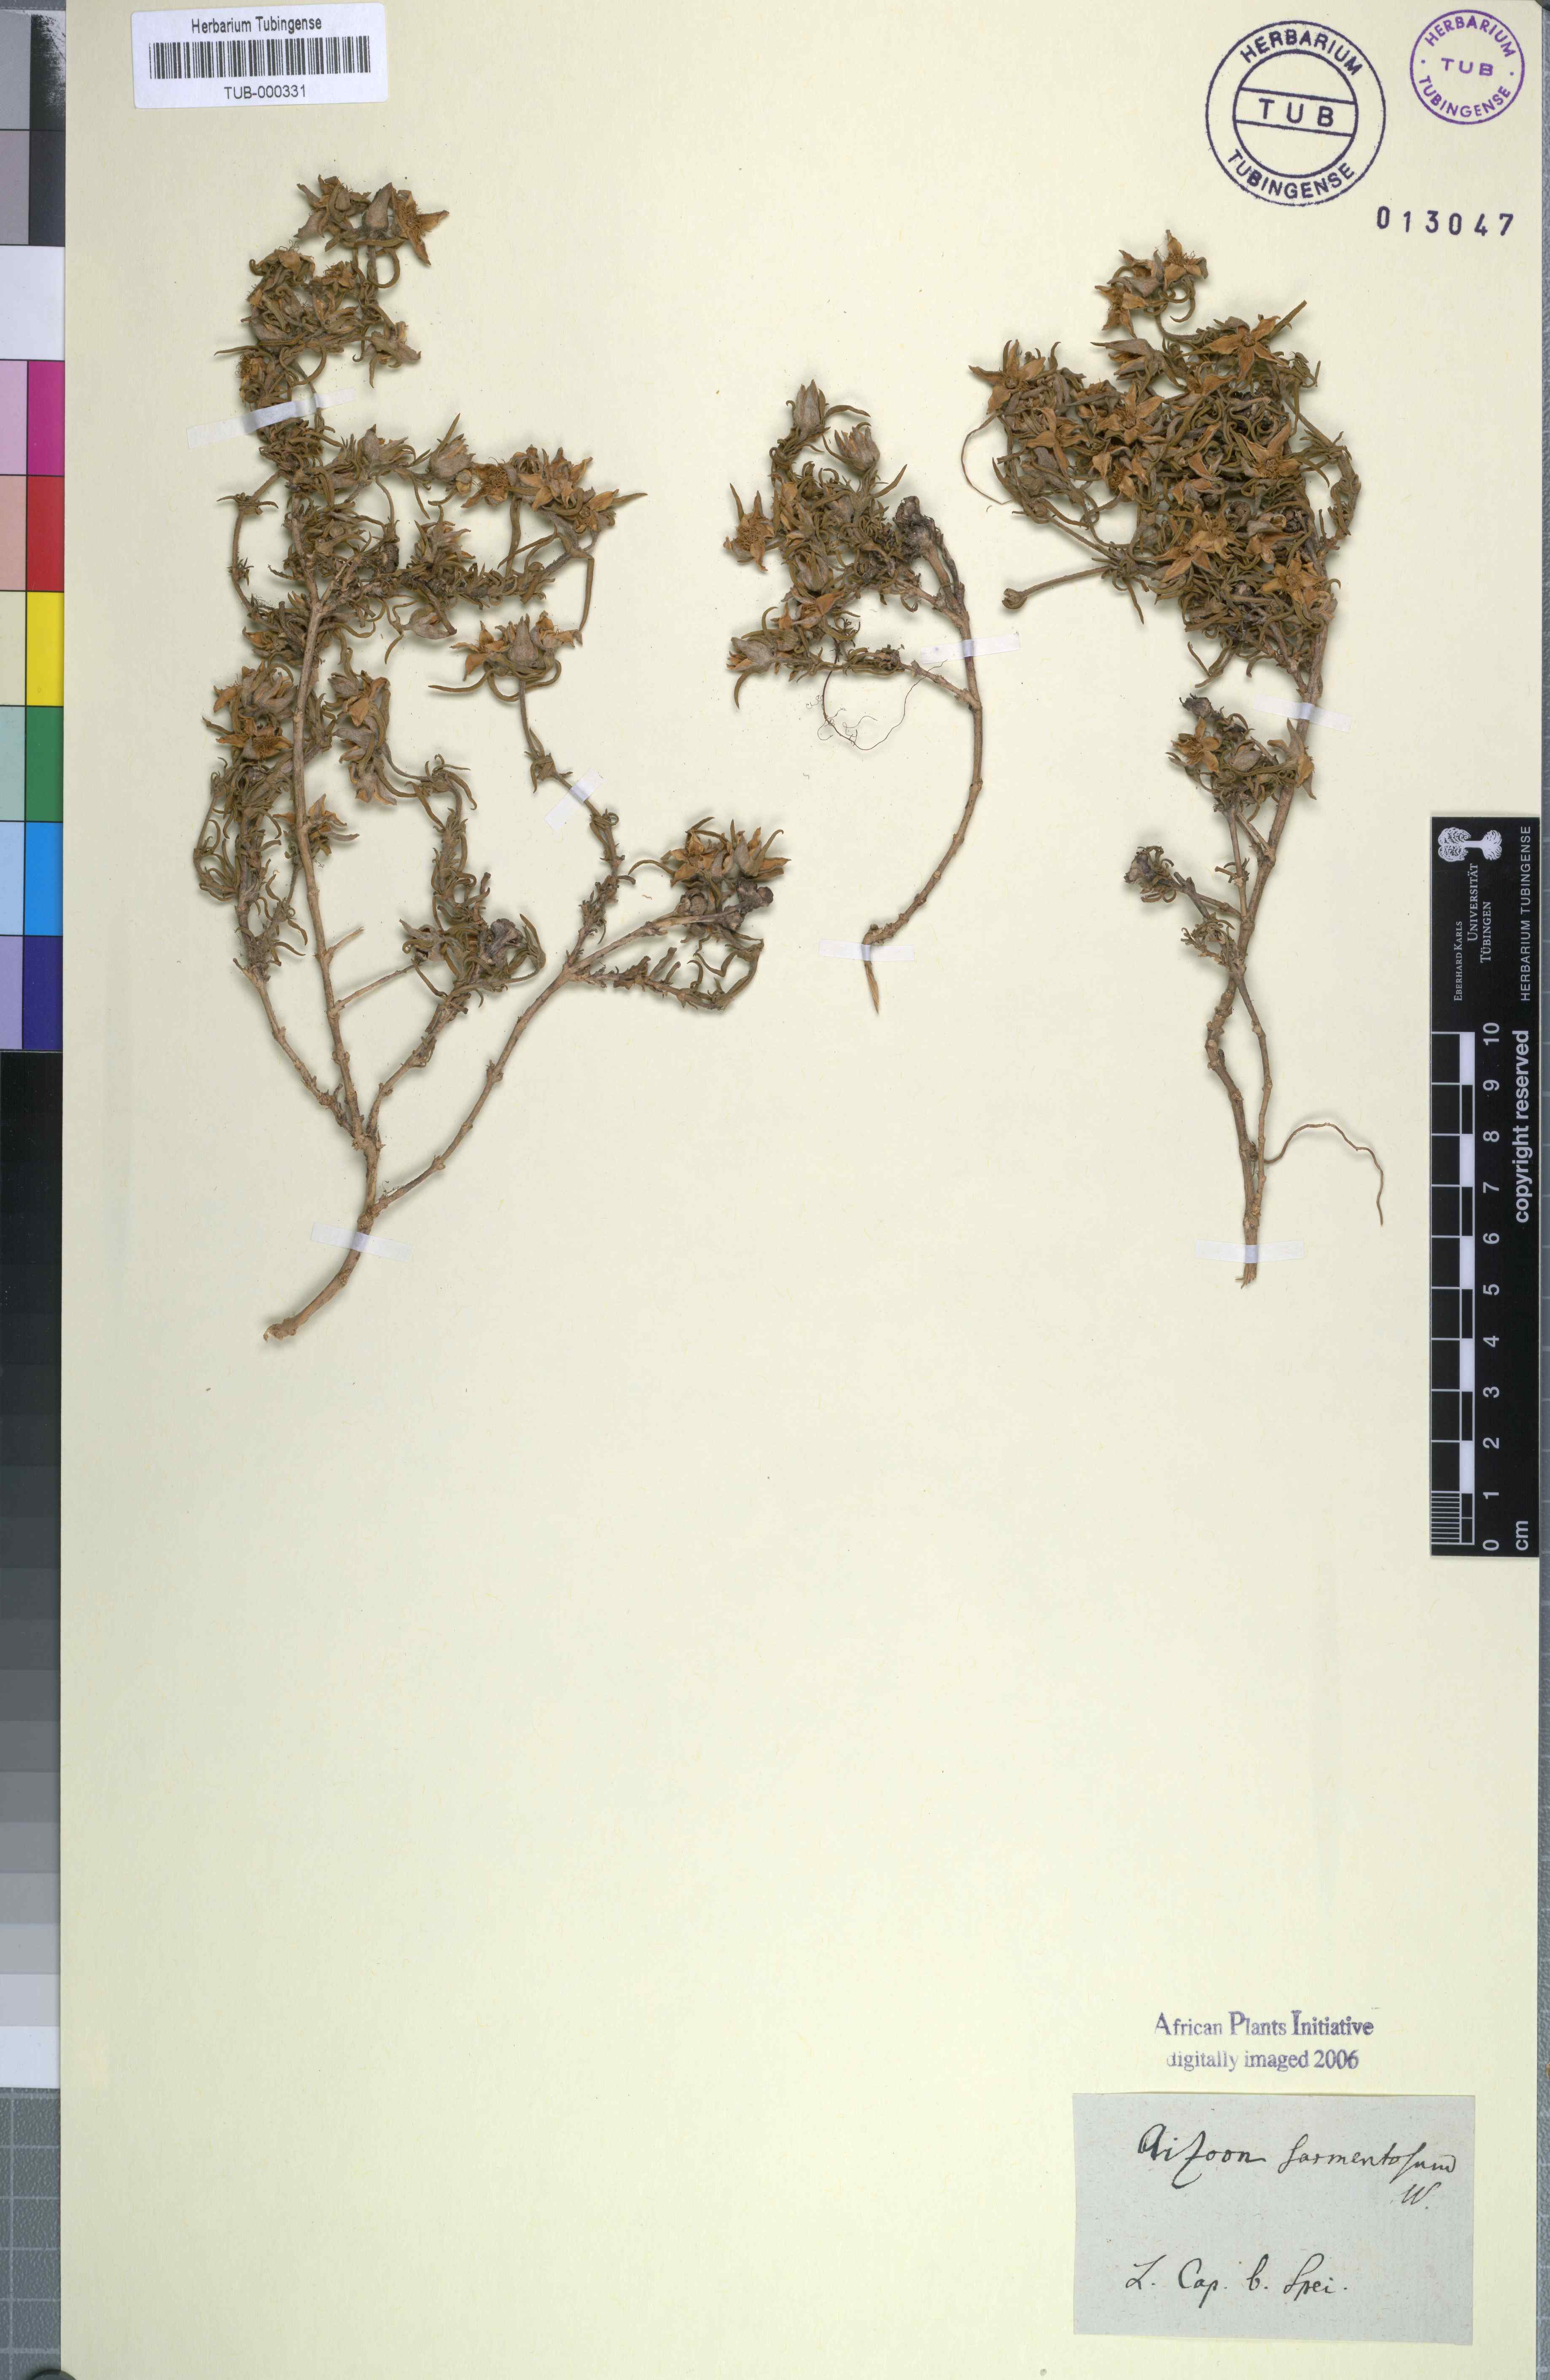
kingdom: Plantae
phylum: Tracheophyta
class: Magnoliopsida
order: Caryophyllales
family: Aizoaceae
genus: Aizoon
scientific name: Aizoon sarmentosum
